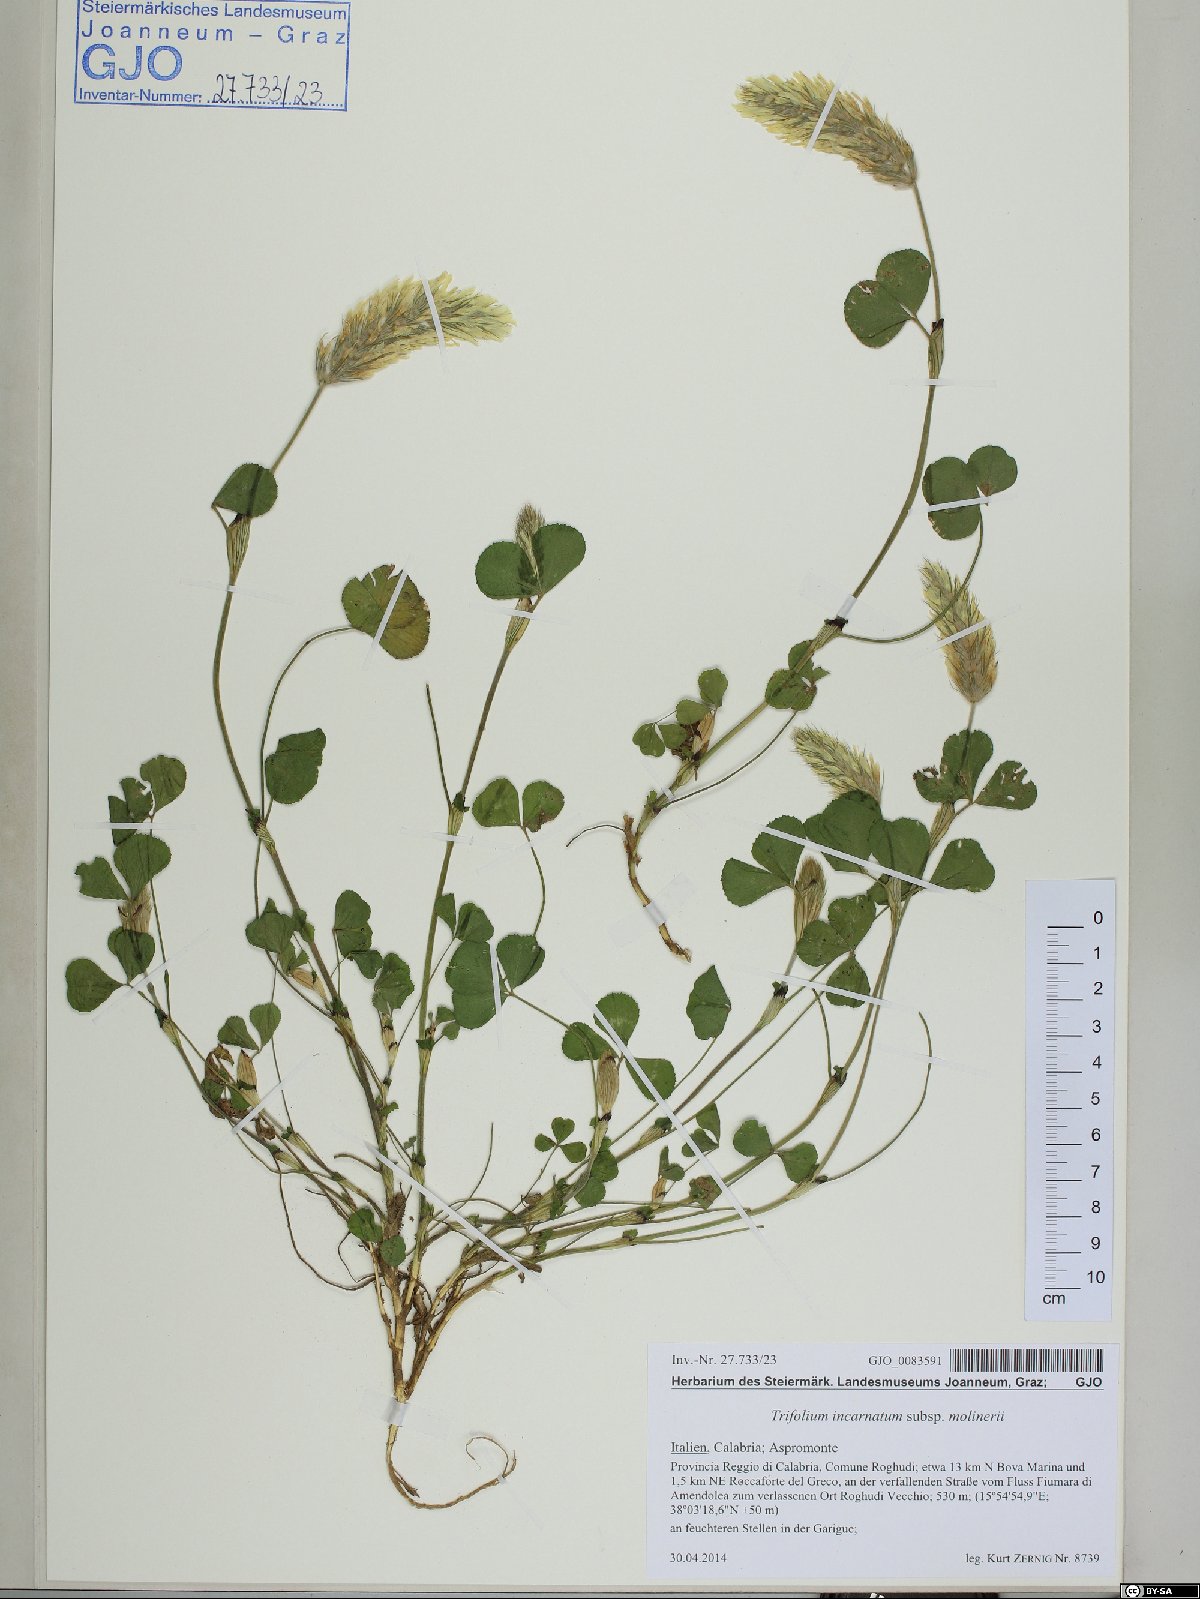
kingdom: Plantae
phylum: Tracheophyta
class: Magnoliopsida
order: Fabales
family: Fabaceae
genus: Trifolium
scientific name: Trifolium incarnatum
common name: Crimson clover
